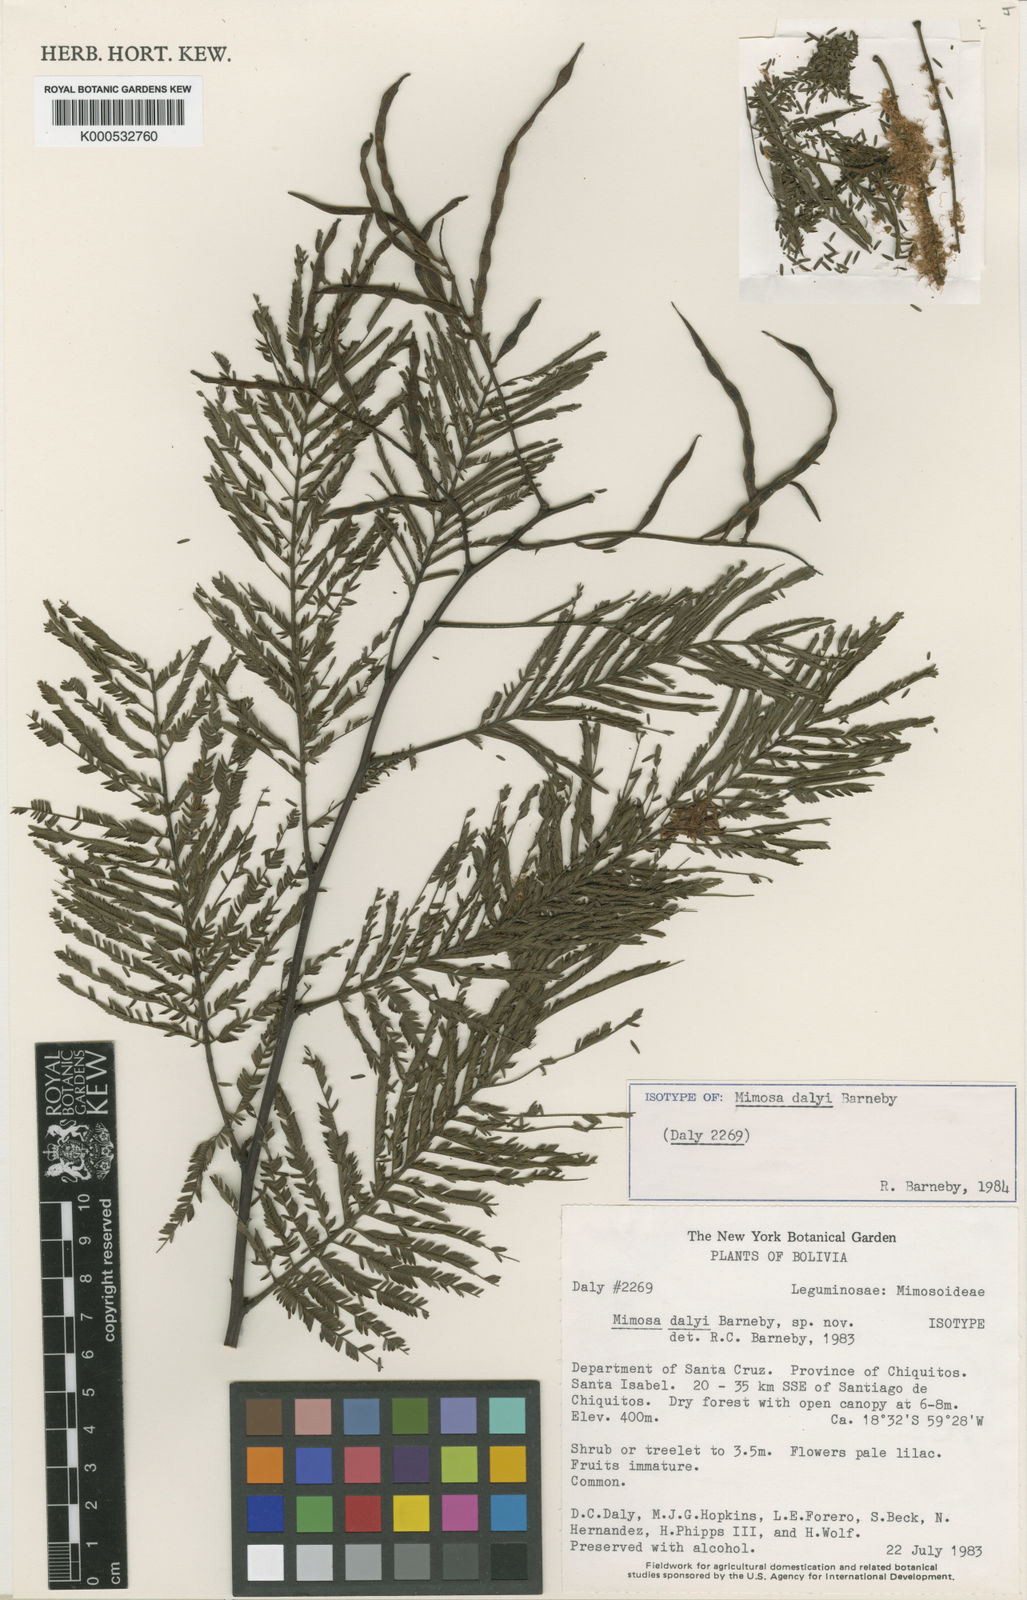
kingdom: Plantae
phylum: Tracheophyta
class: Magnoliopsida
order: Fabales
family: Fabaceae
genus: Mimosa
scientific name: Mimosa dalyi
